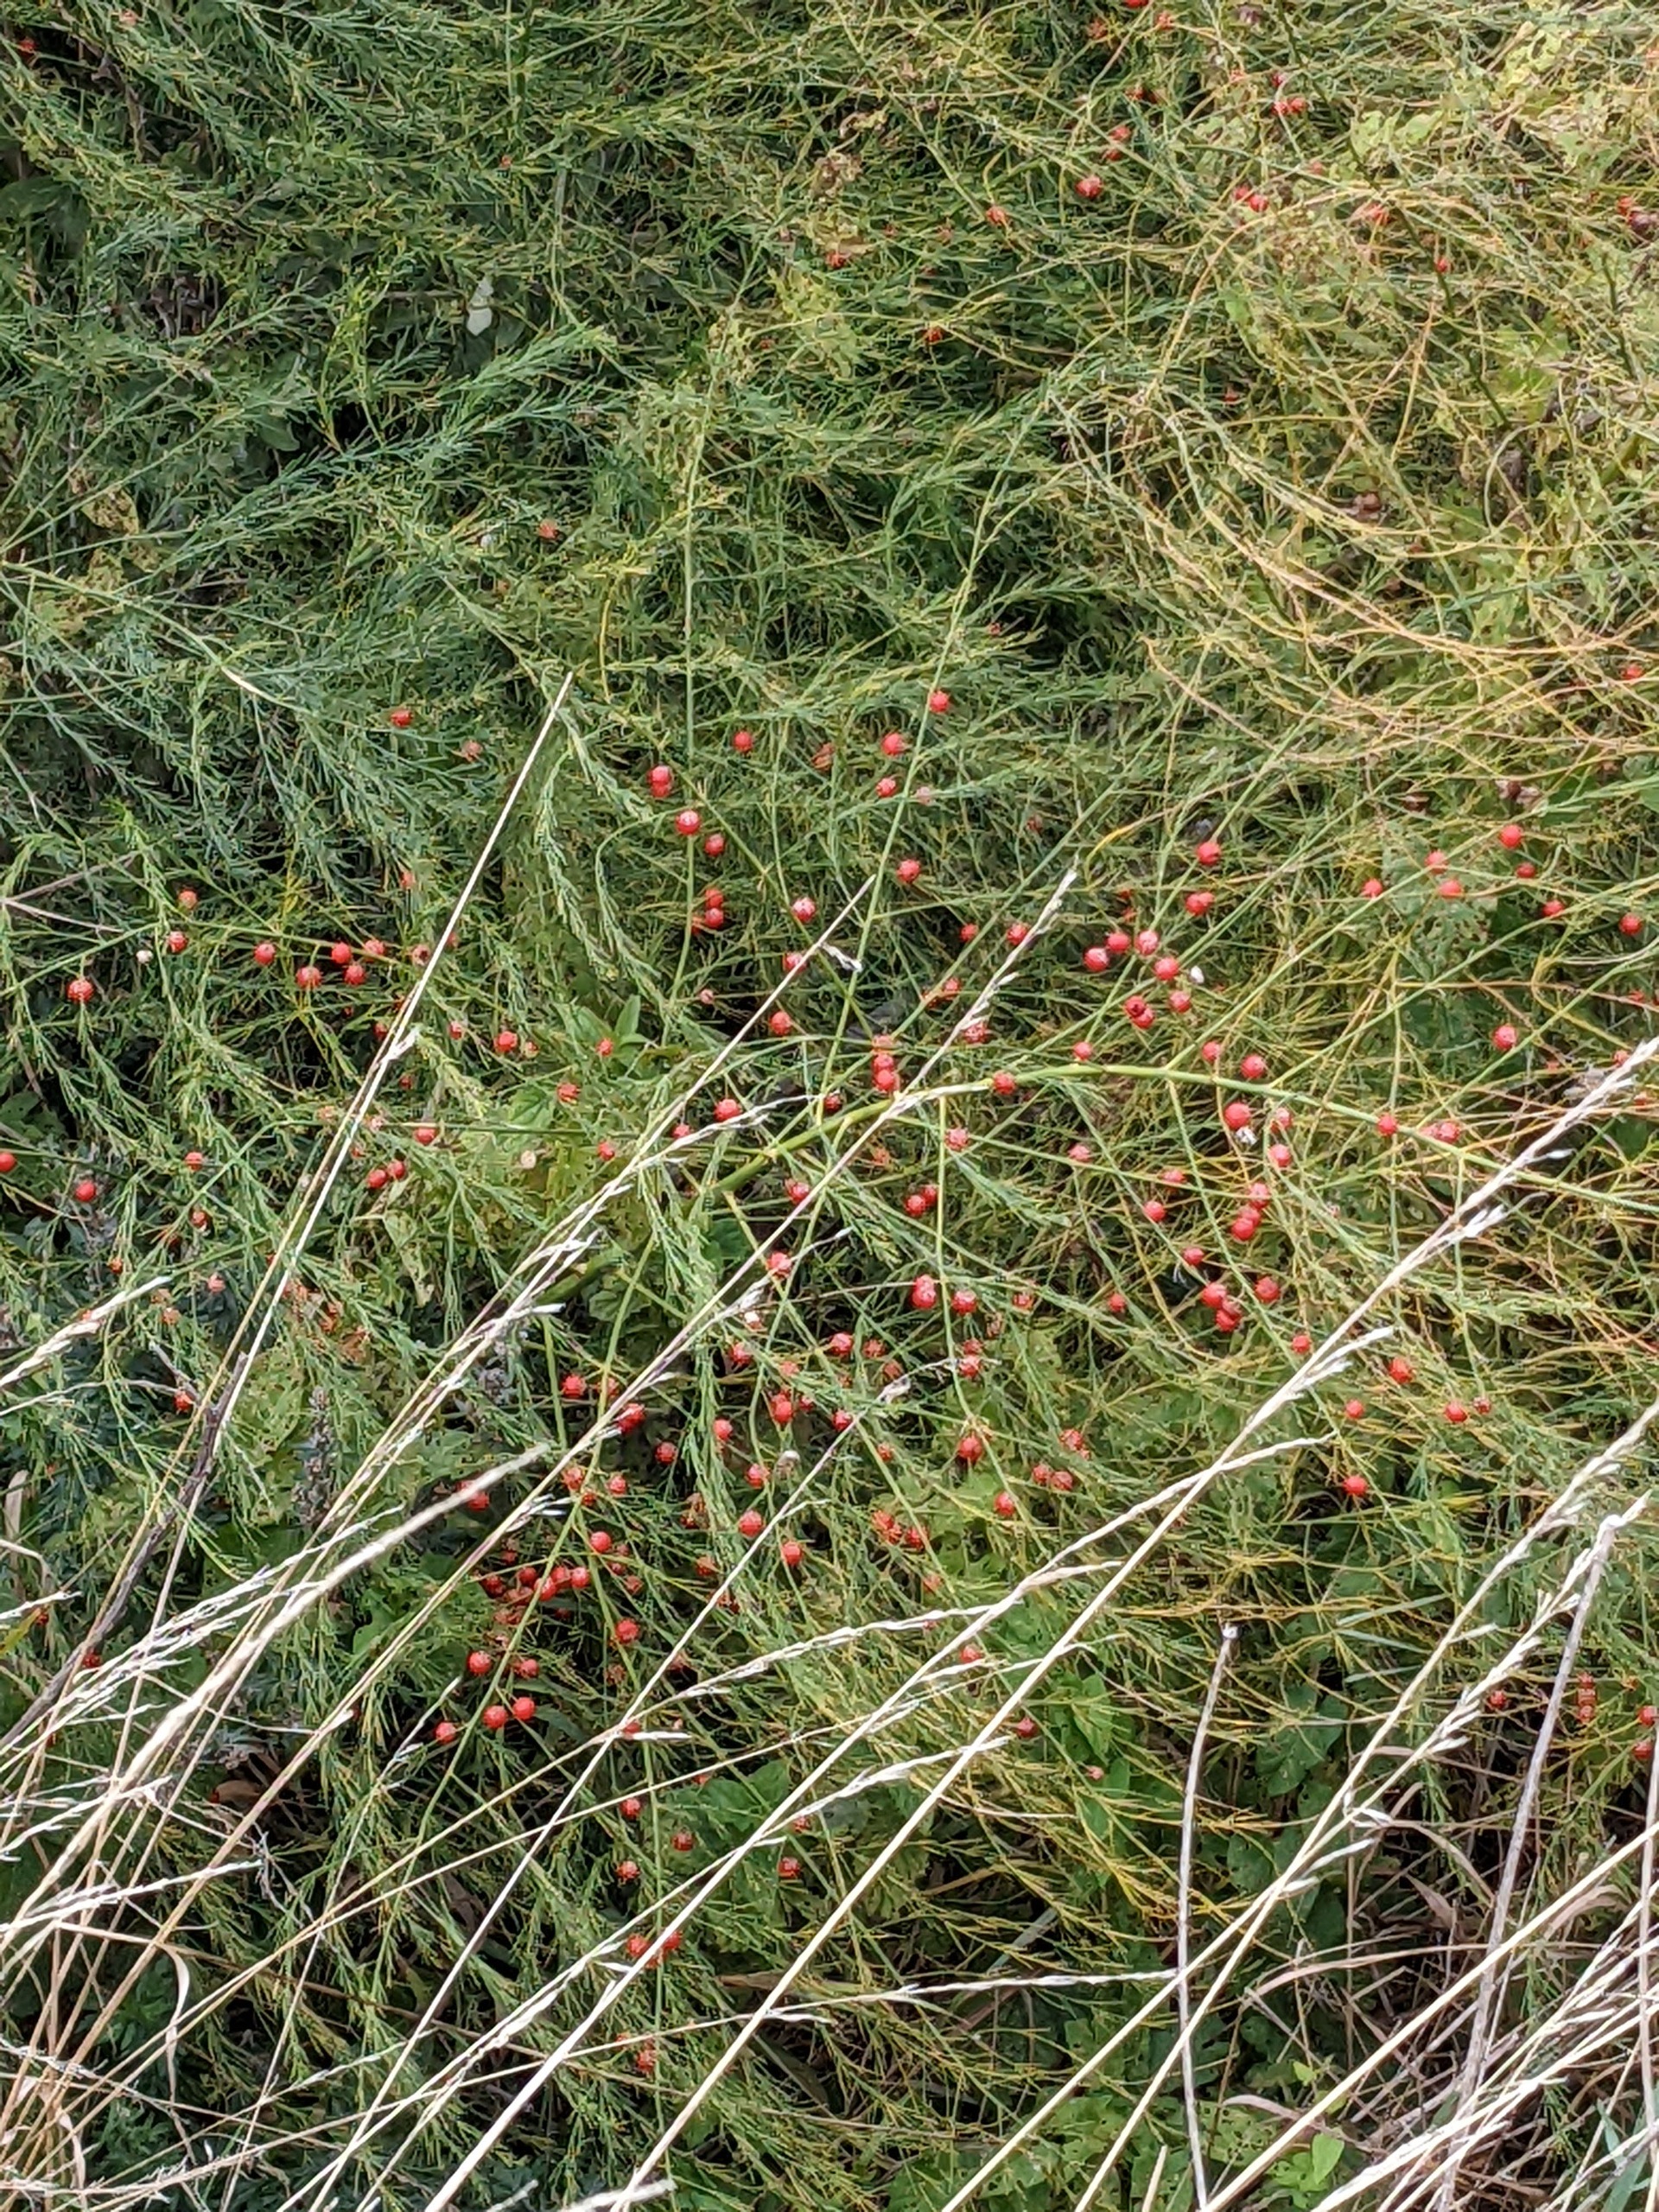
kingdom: Plantae
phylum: Tracheophyta
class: Liliopsida
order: Asparagales
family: Asparagaceae
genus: Asparagus
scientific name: Asparagus officinalis
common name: Asparges
